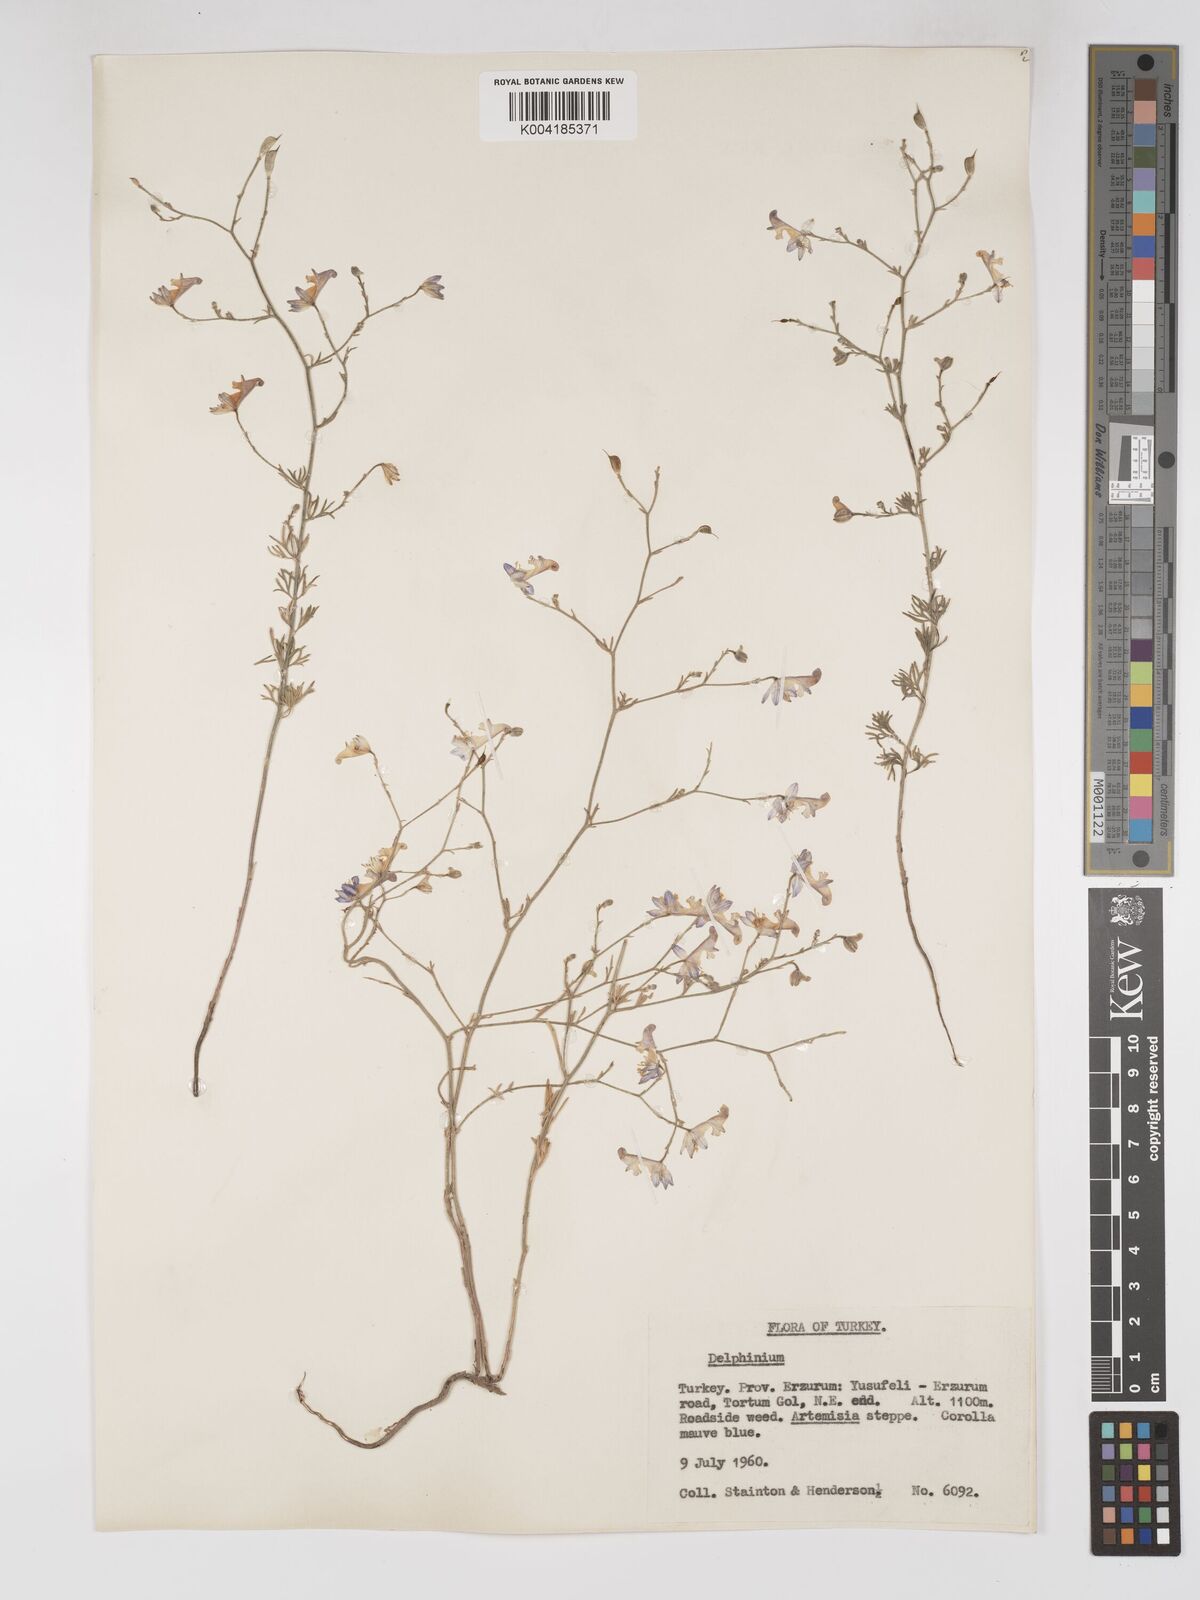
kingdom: Plantae
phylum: Tracheophyta
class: Magnoliopsida
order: Ranunculales
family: Ranunculaceae
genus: Delphinium
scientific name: Delphinium
